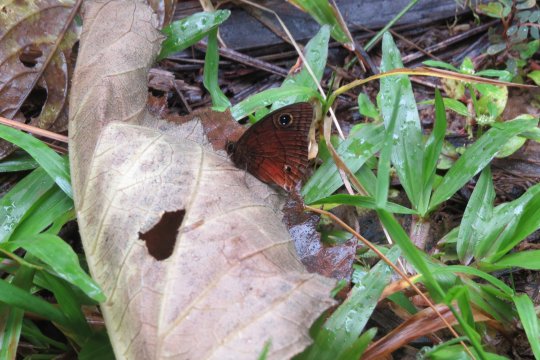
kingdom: Animalia
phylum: Arthropoda
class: Insecta
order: Lepidoptera
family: Nymphalidae
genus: Calisto
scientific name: Calisto nubila
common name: Puerto Rican Calisto
